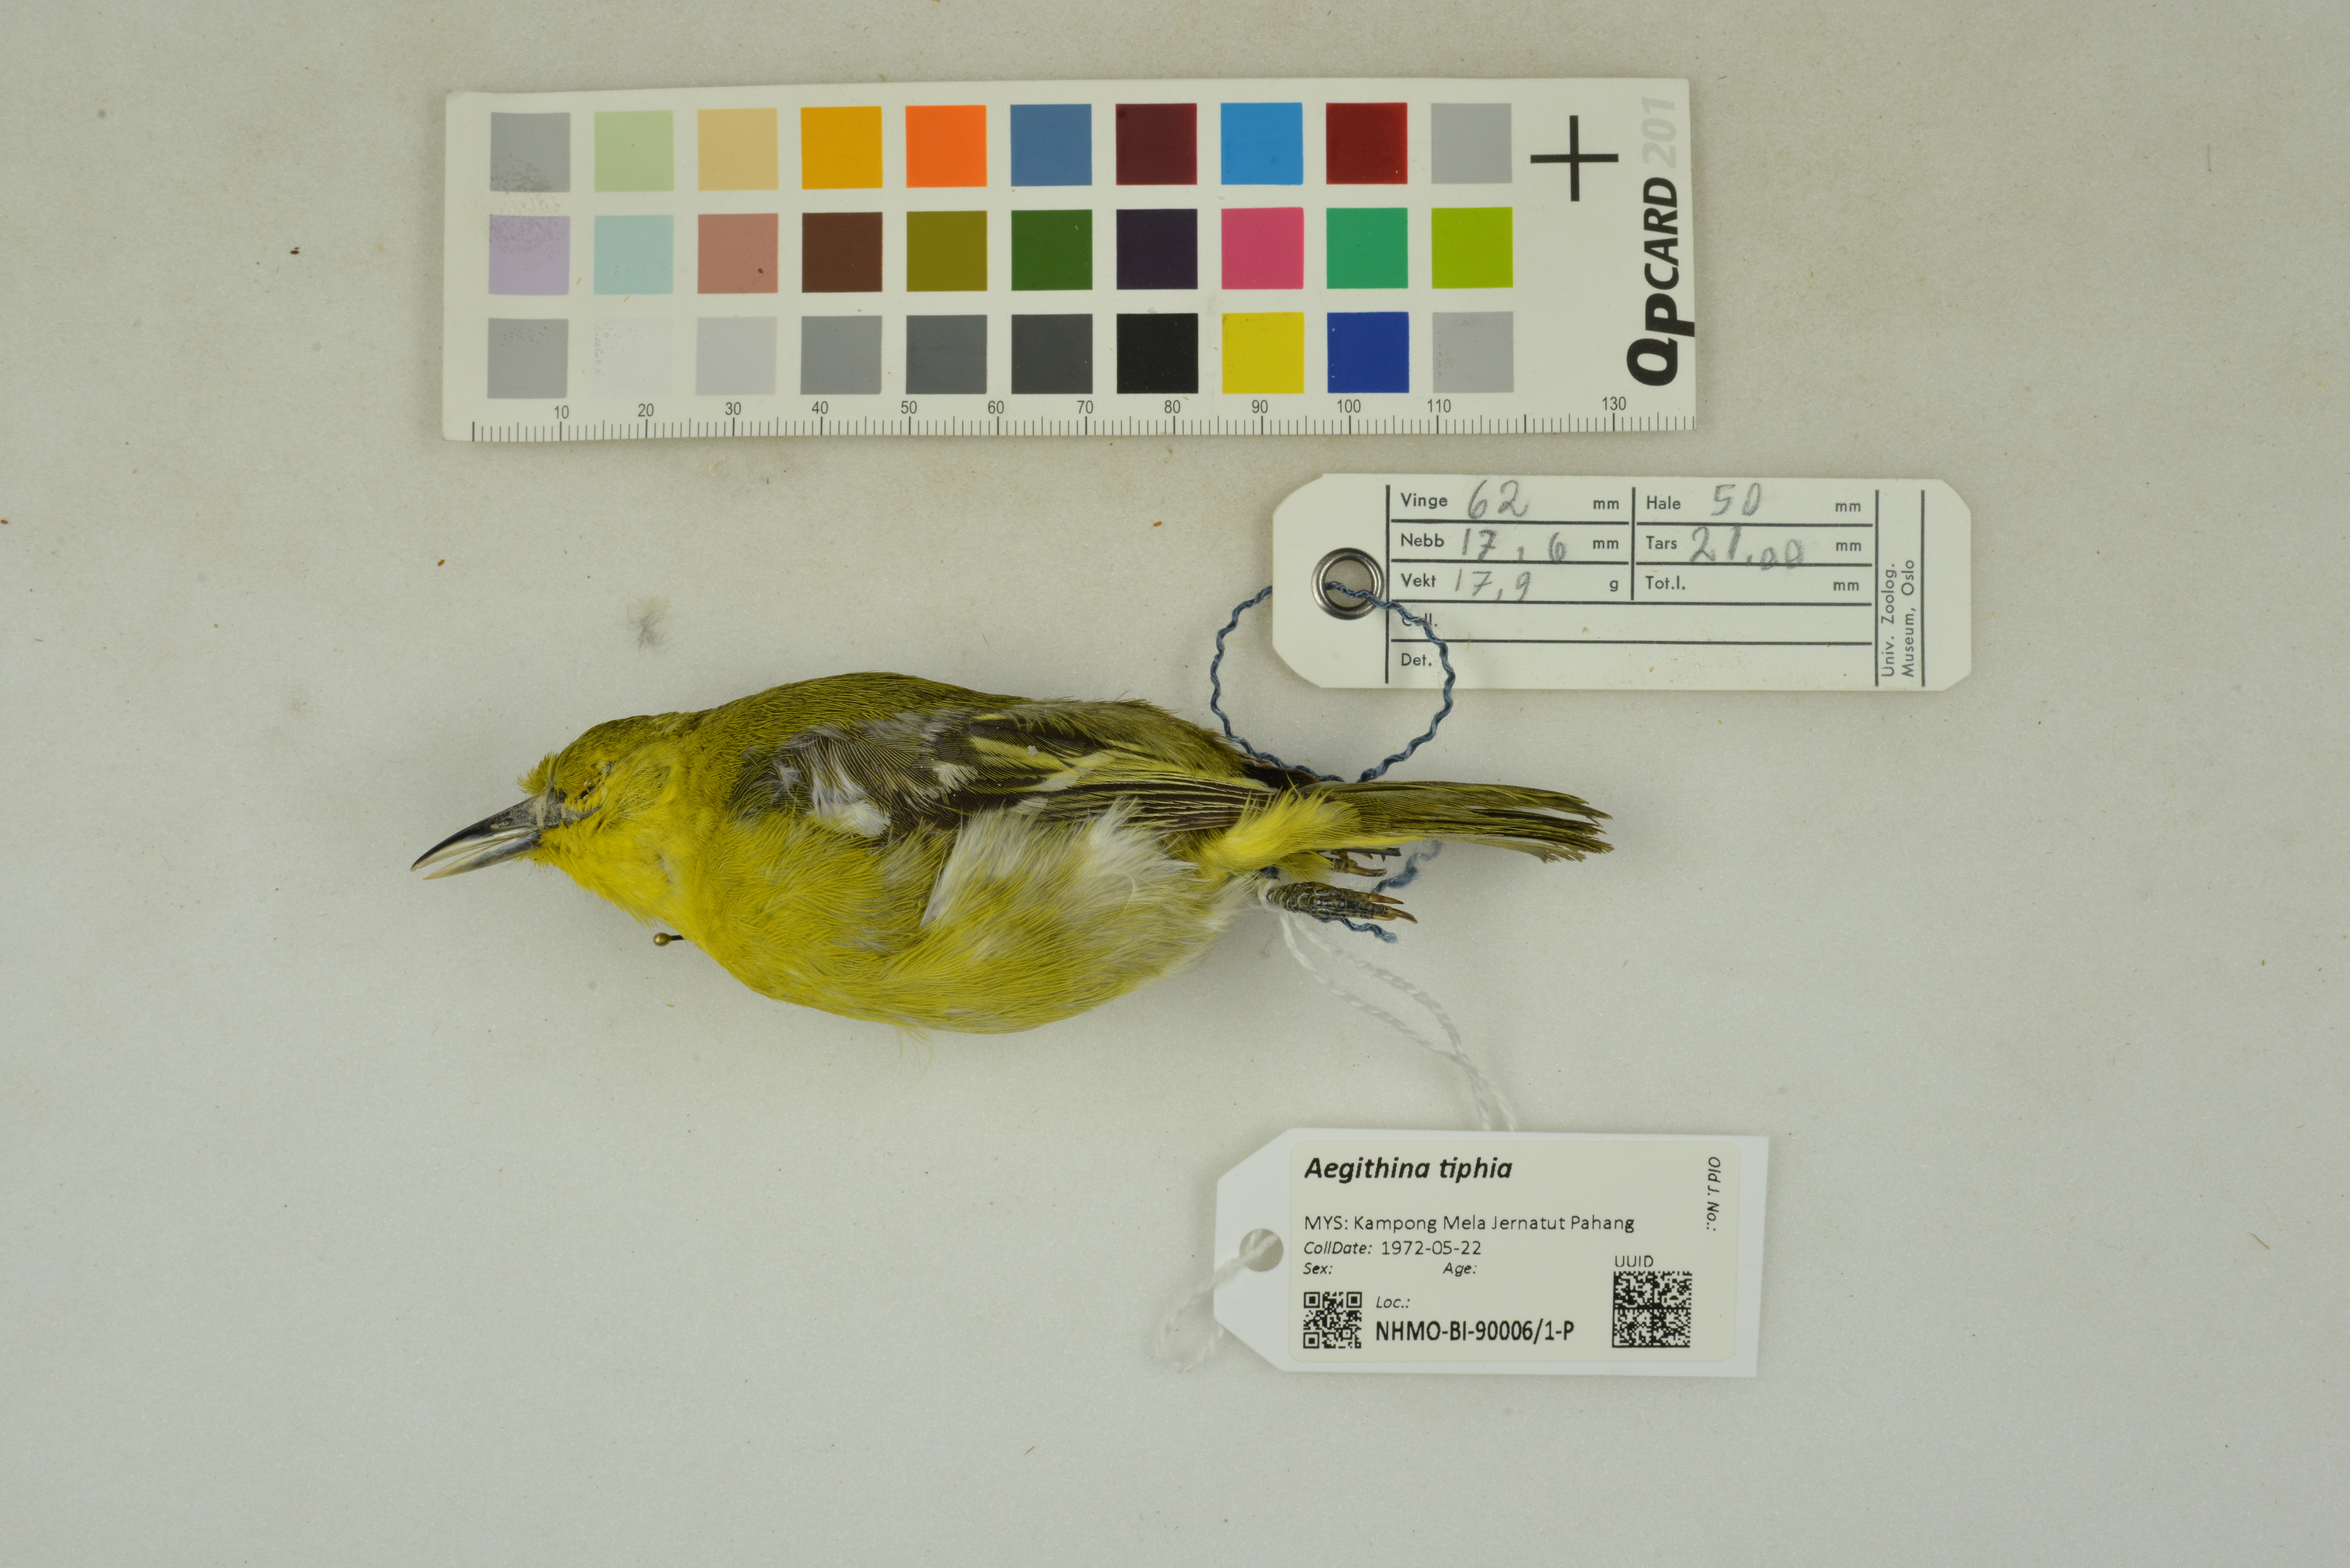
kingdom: Animalia
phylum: Chordata
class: Aves
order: Passeriformes
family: Aegithinidae
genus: Aegithina
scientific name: Aegithina tiphia
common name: Common iora
